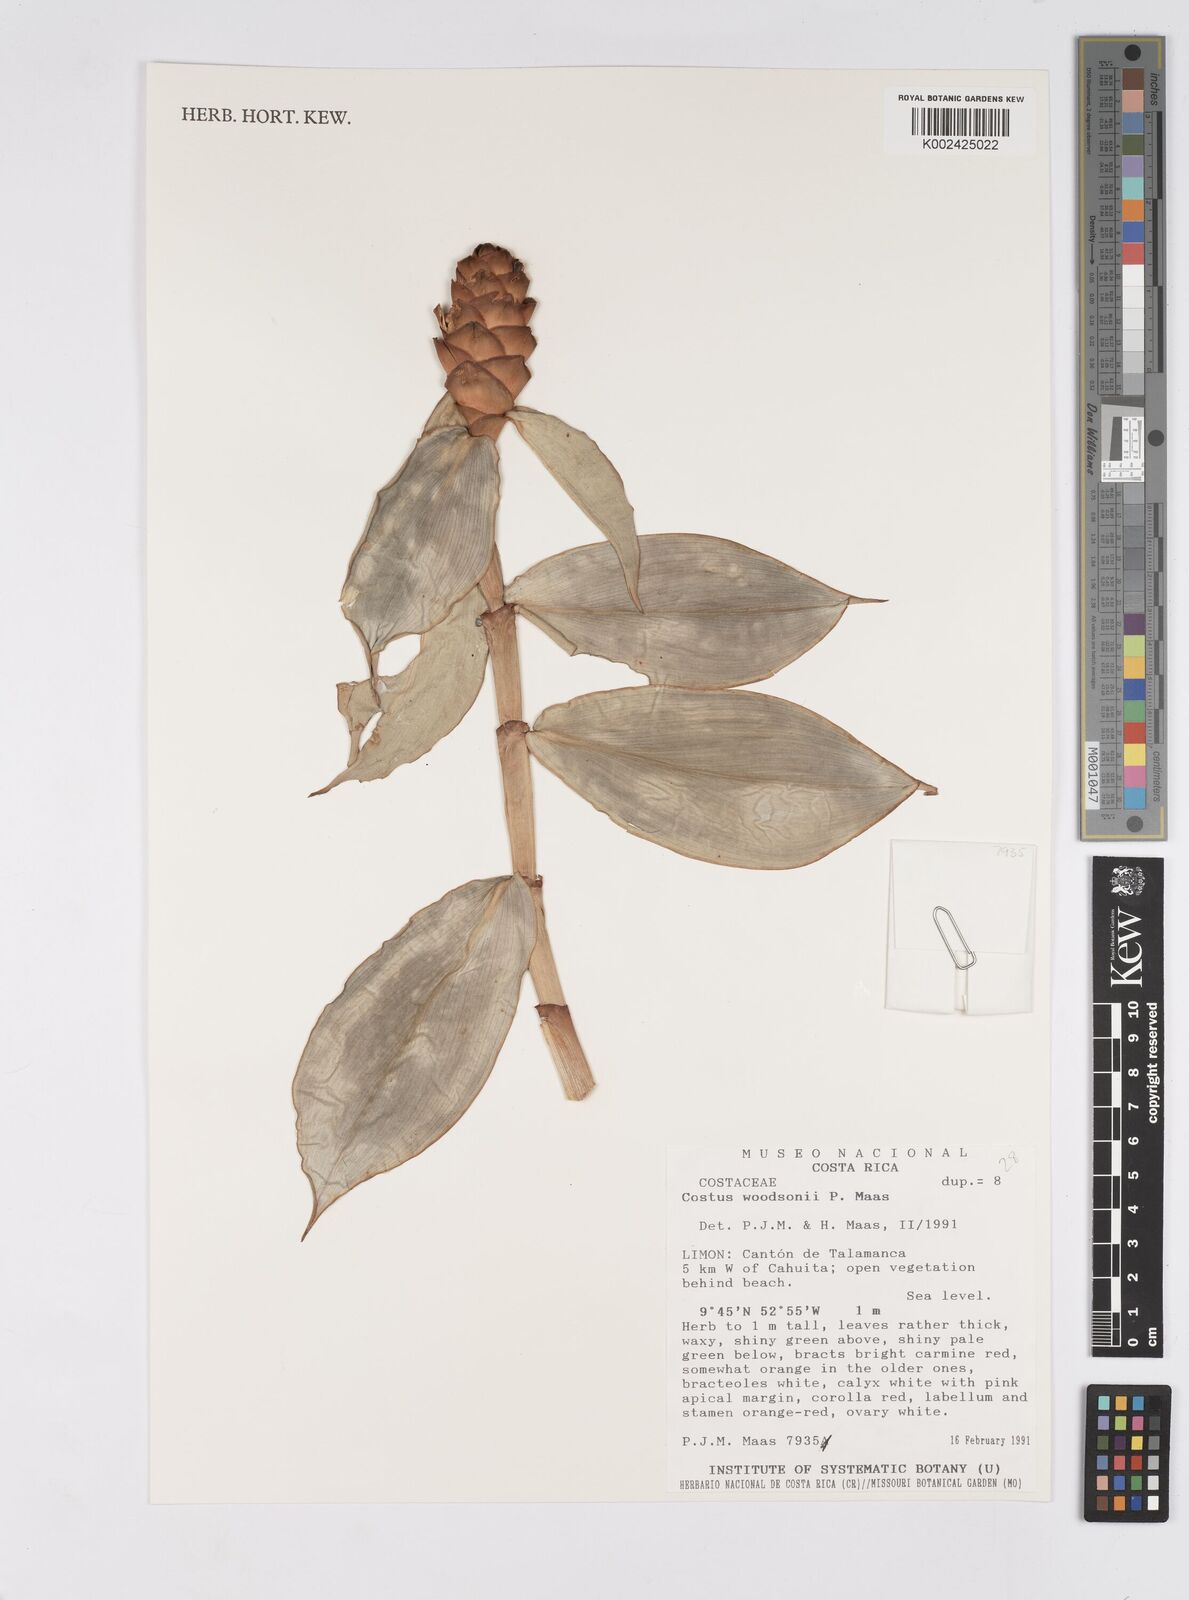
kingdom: Plantae
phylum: Tracheophyta
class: Liliopsida
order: Zingiberales
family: Costaceae
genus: Costus
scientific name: Costus woodsonii
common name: Scarlet spiral-ginger
